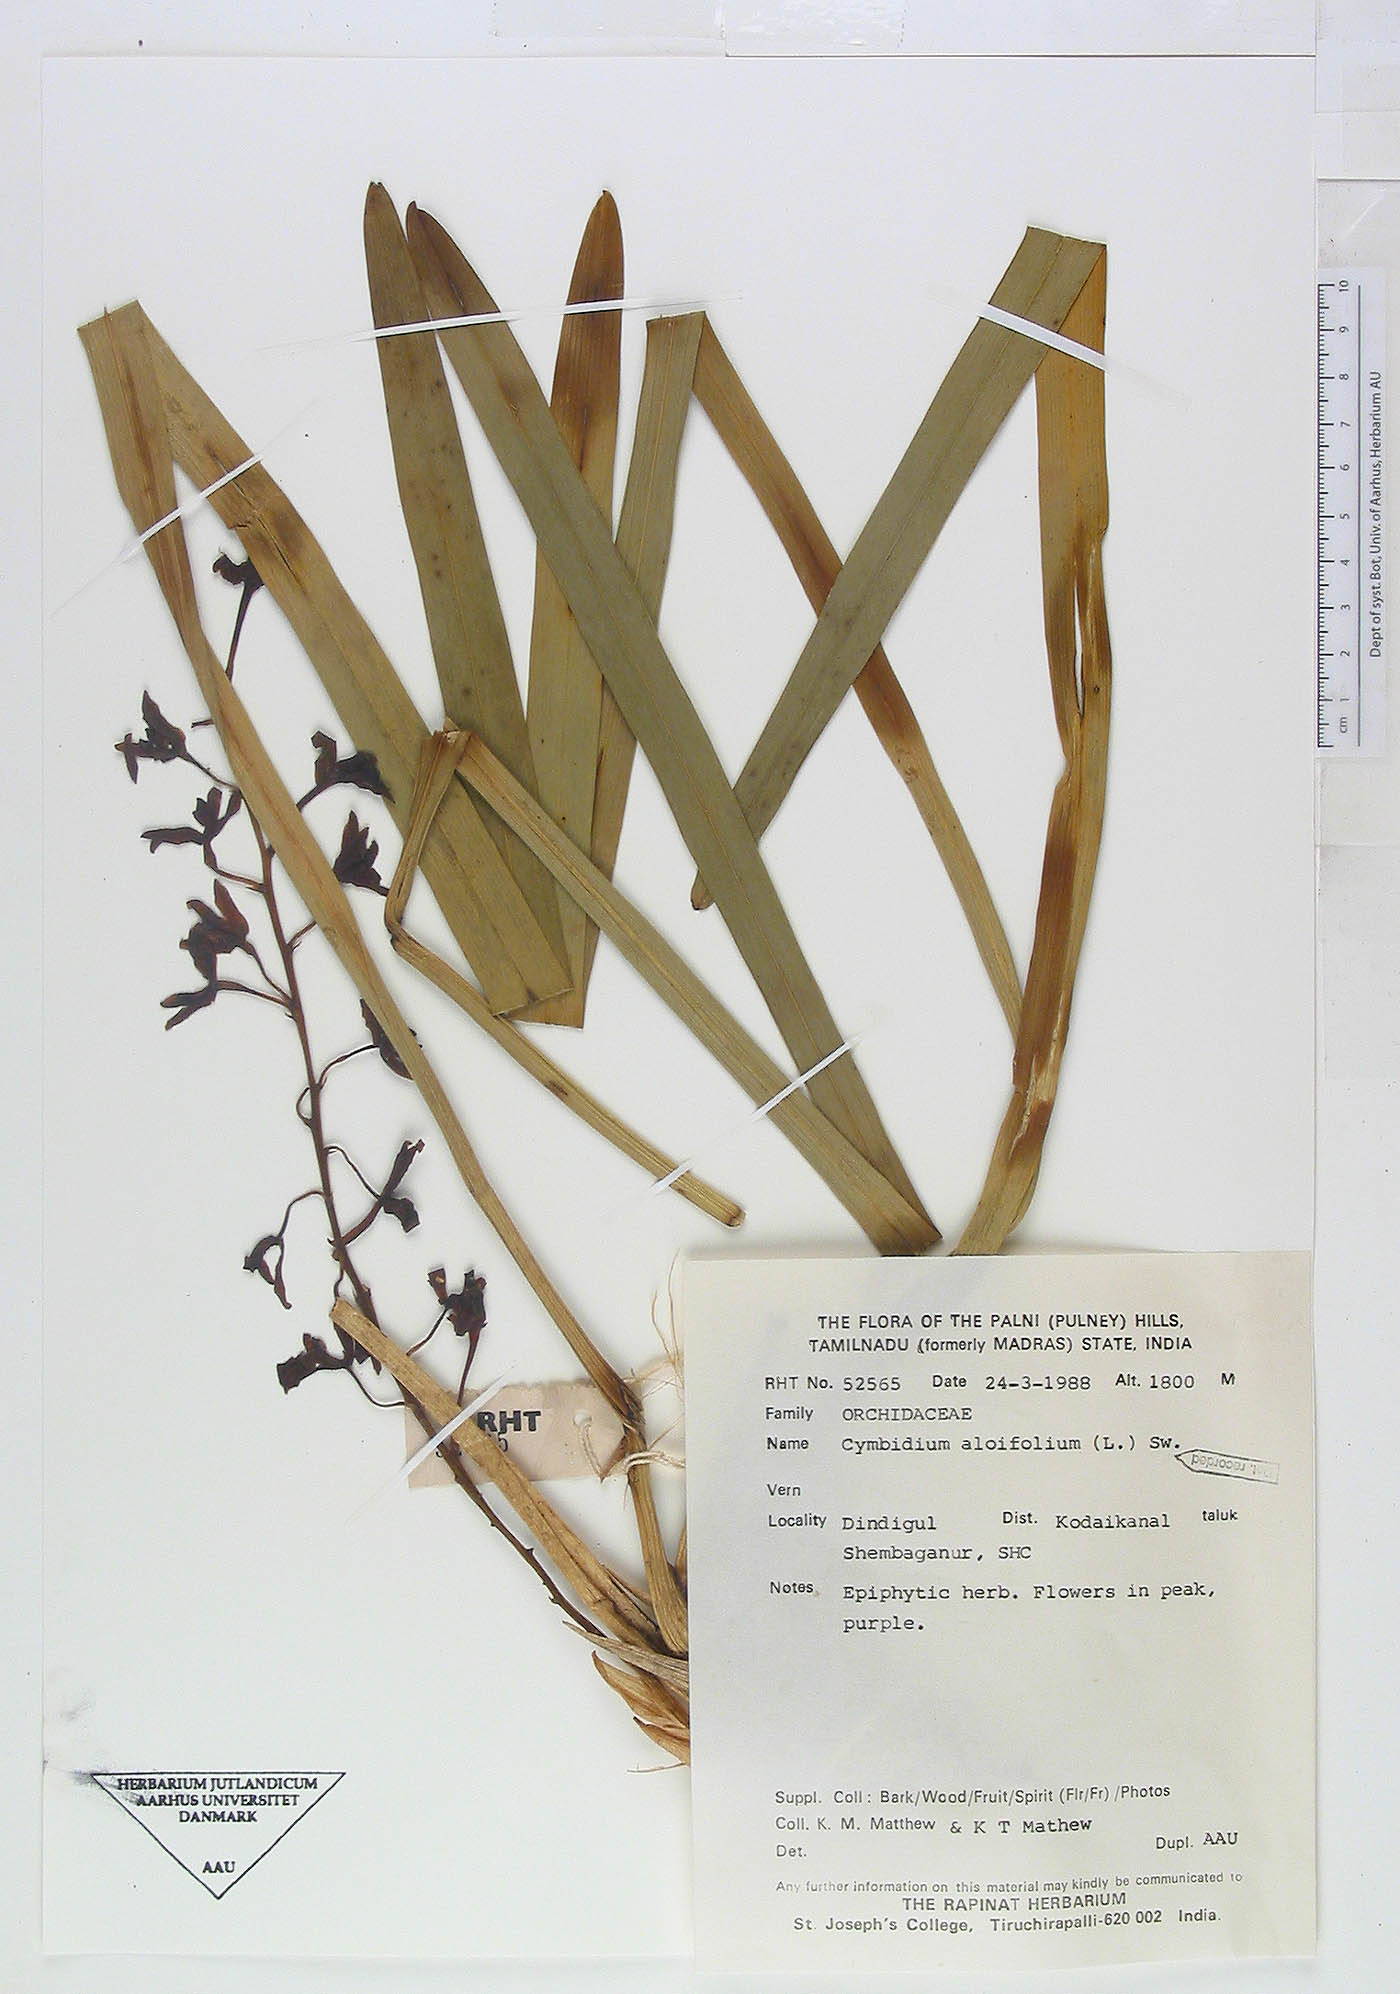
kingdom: Plantae
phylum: Tracheophyta
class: Liliopsida
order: Asparagales
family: Orchidaceae
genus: Cymbidium
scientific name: Cymbidium aloifolium
